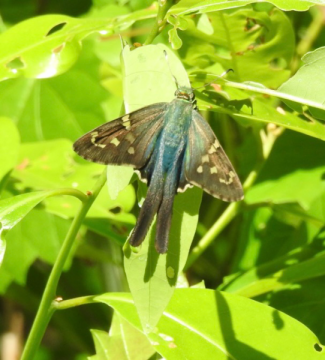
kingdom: Animalia
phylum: Arthropoda
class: Insecta
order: Lepidoptera
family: Hesperiidae
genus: Urbanus
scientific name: Urbanus proteus
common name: Long-tailed Skipper
